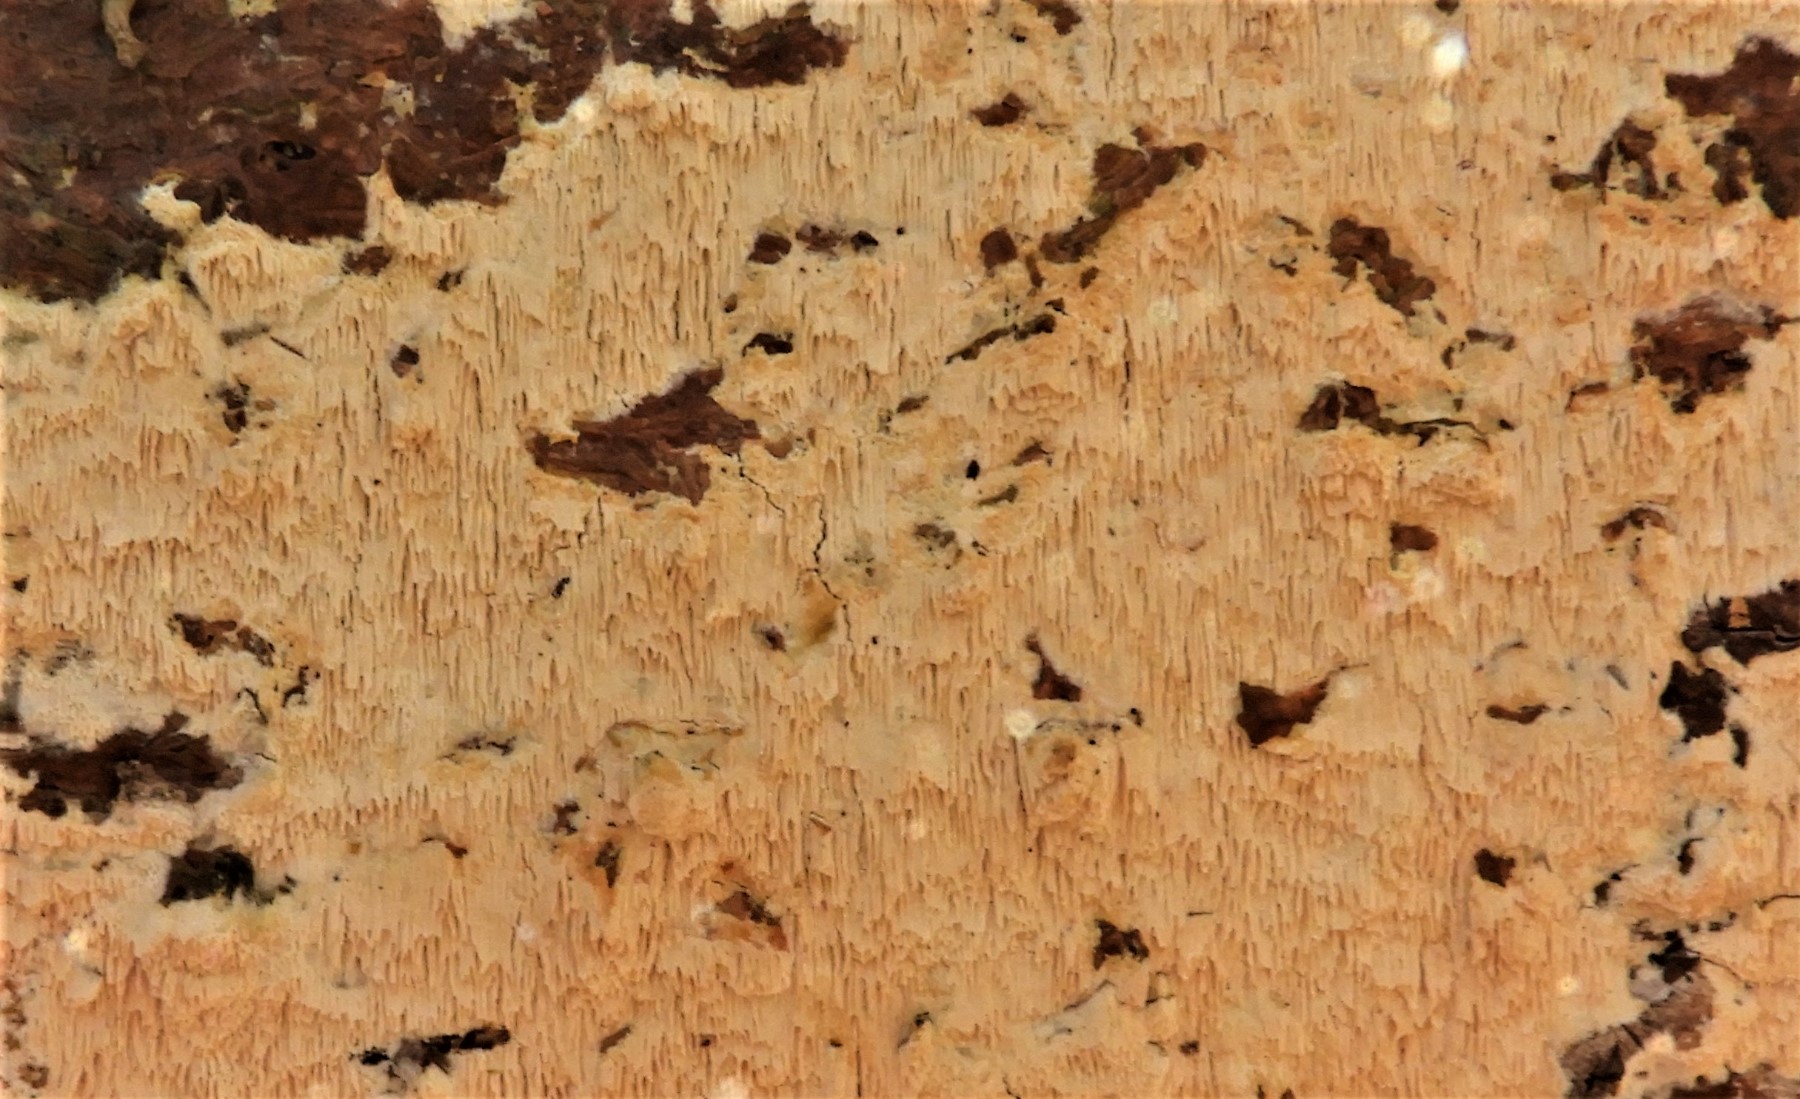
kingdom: Fungi
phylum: Basidiomycota
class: Agaricomycetes
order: Corticiales
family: Corticiaceae
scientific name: Corticiaceae
